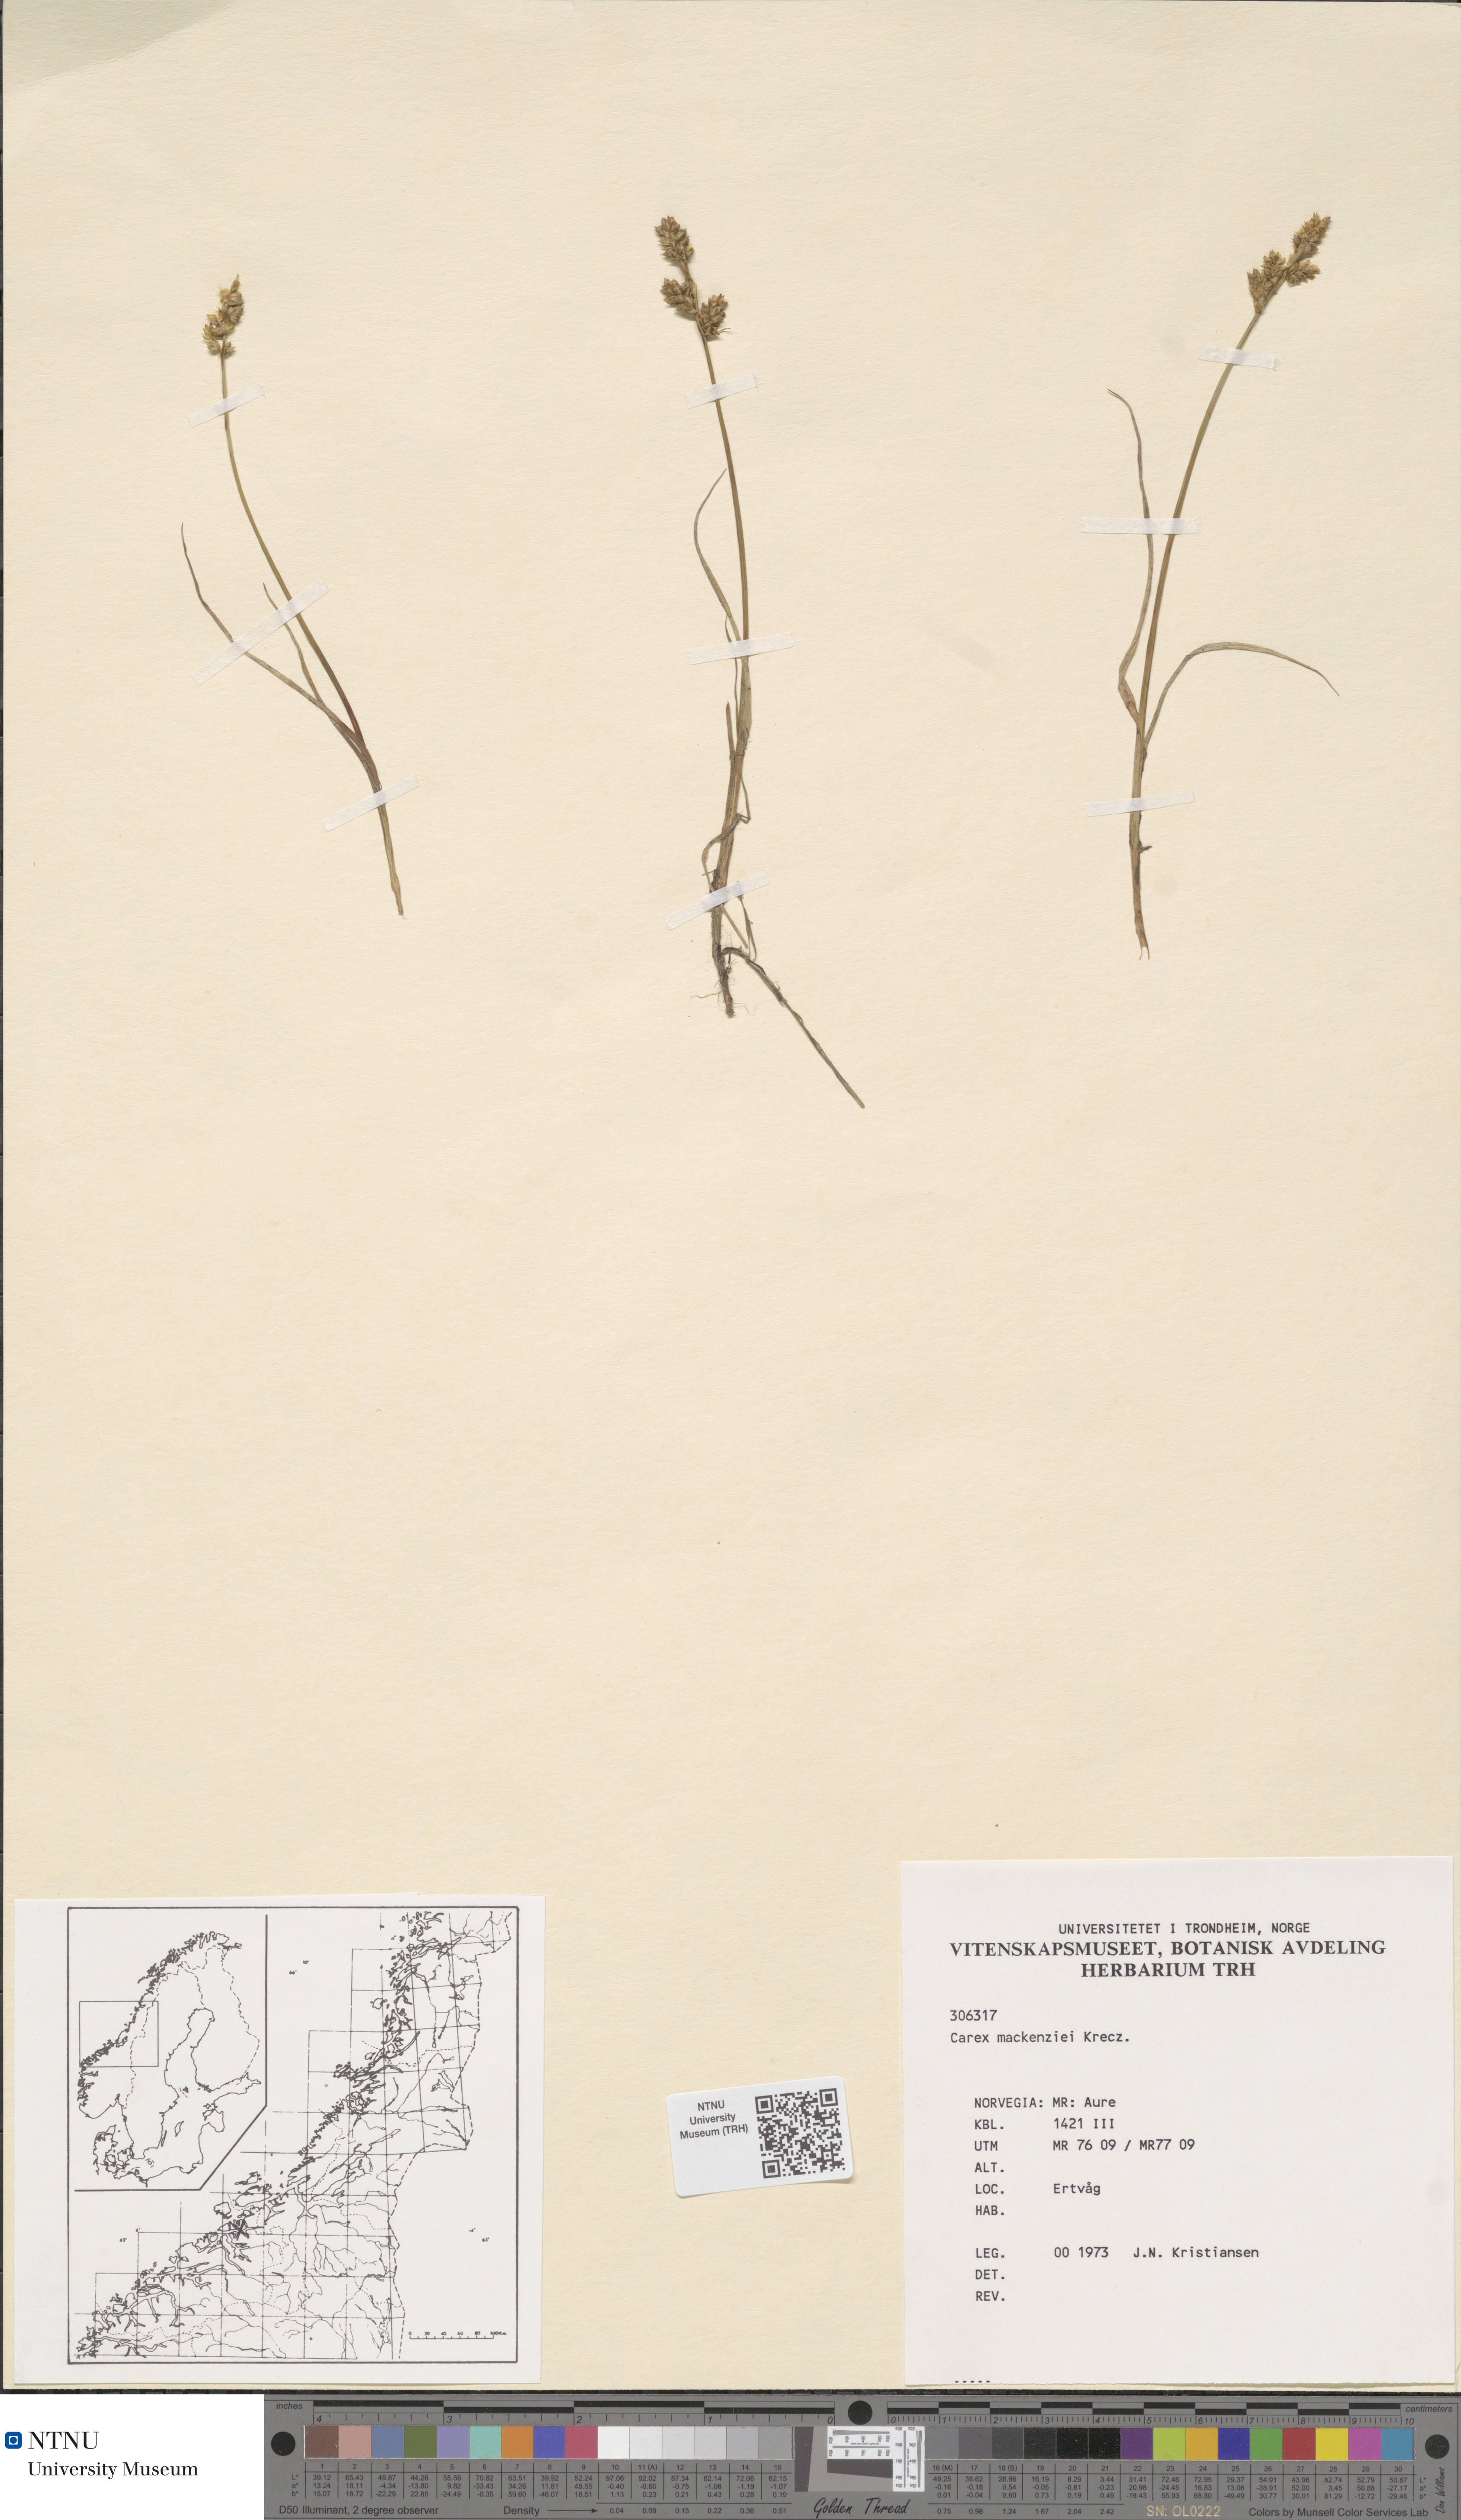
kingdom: Plantae
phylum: Tracheophyta
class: Liliopsida
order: Poales
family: Cyperaceae
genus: Carex
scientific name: Carex mackenziei
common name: Mackenzie's sedge
